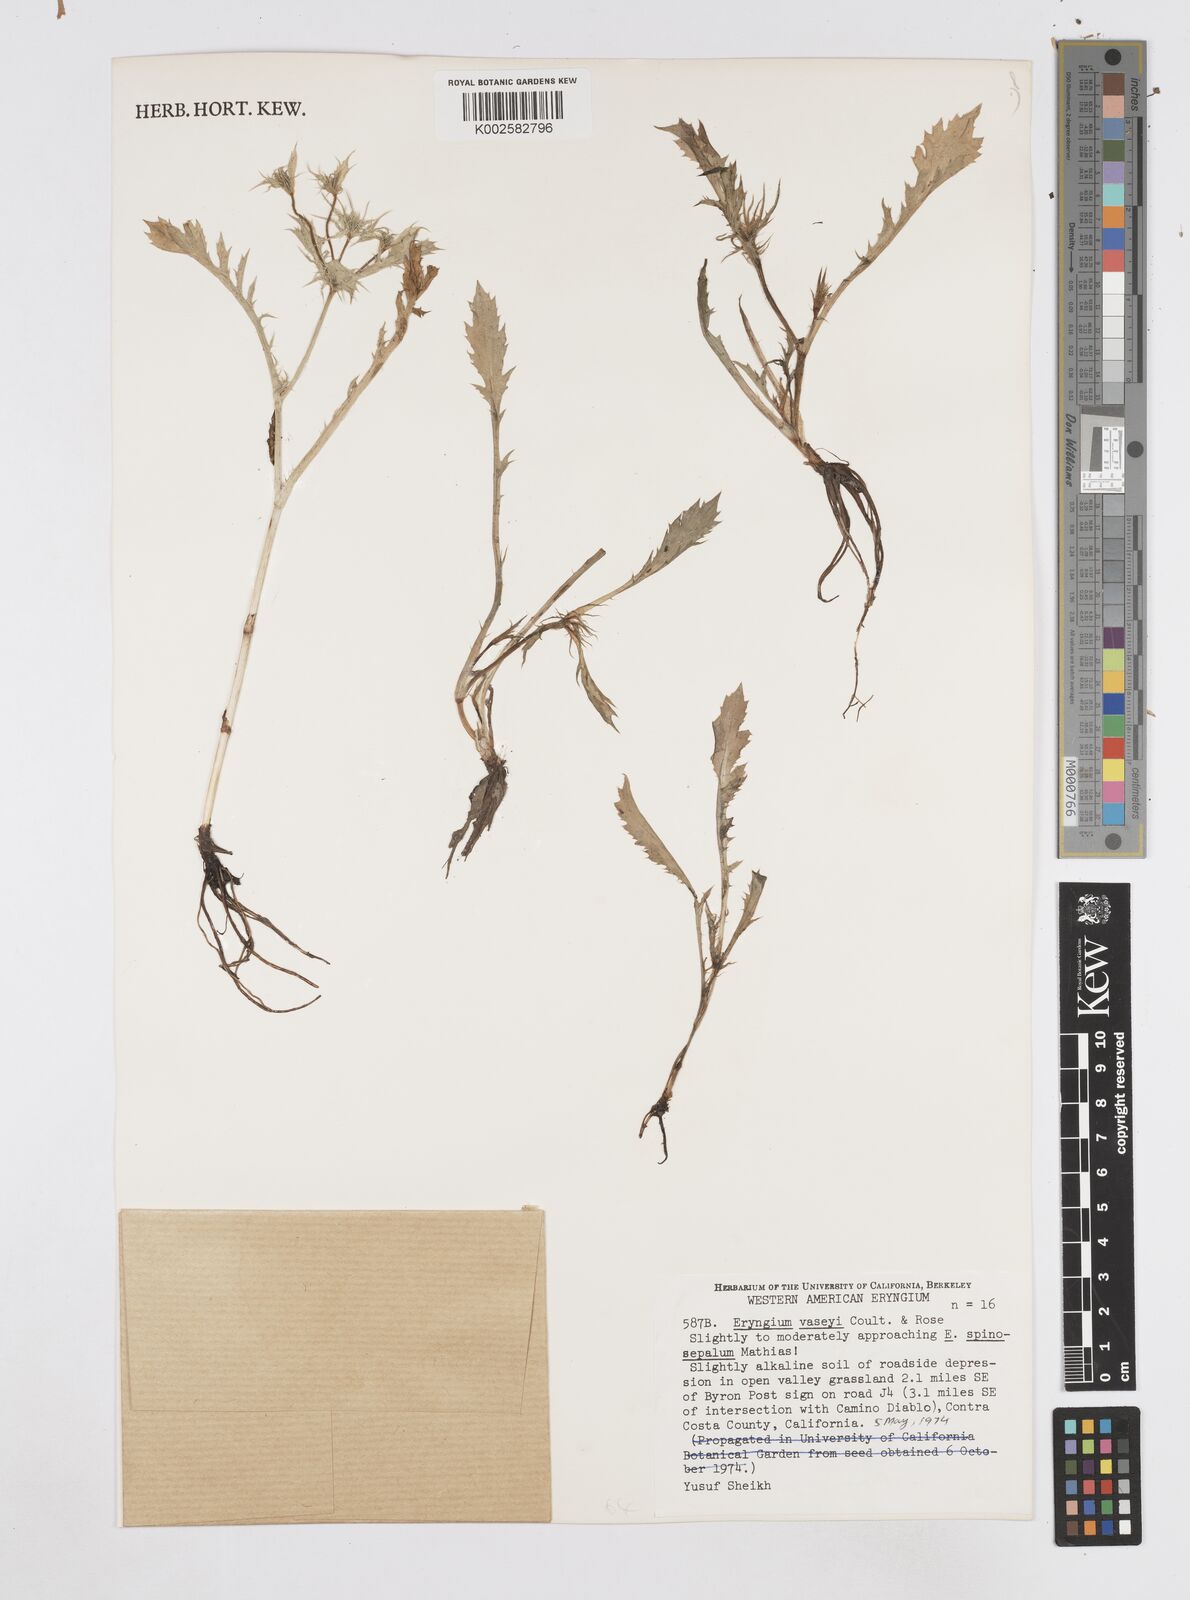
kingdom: Plantae
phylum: Tracheophyta
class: Magnoliopsida
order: Apiales
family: Apiaceae
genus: Eryngium
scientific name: Eryngium vaseyi
